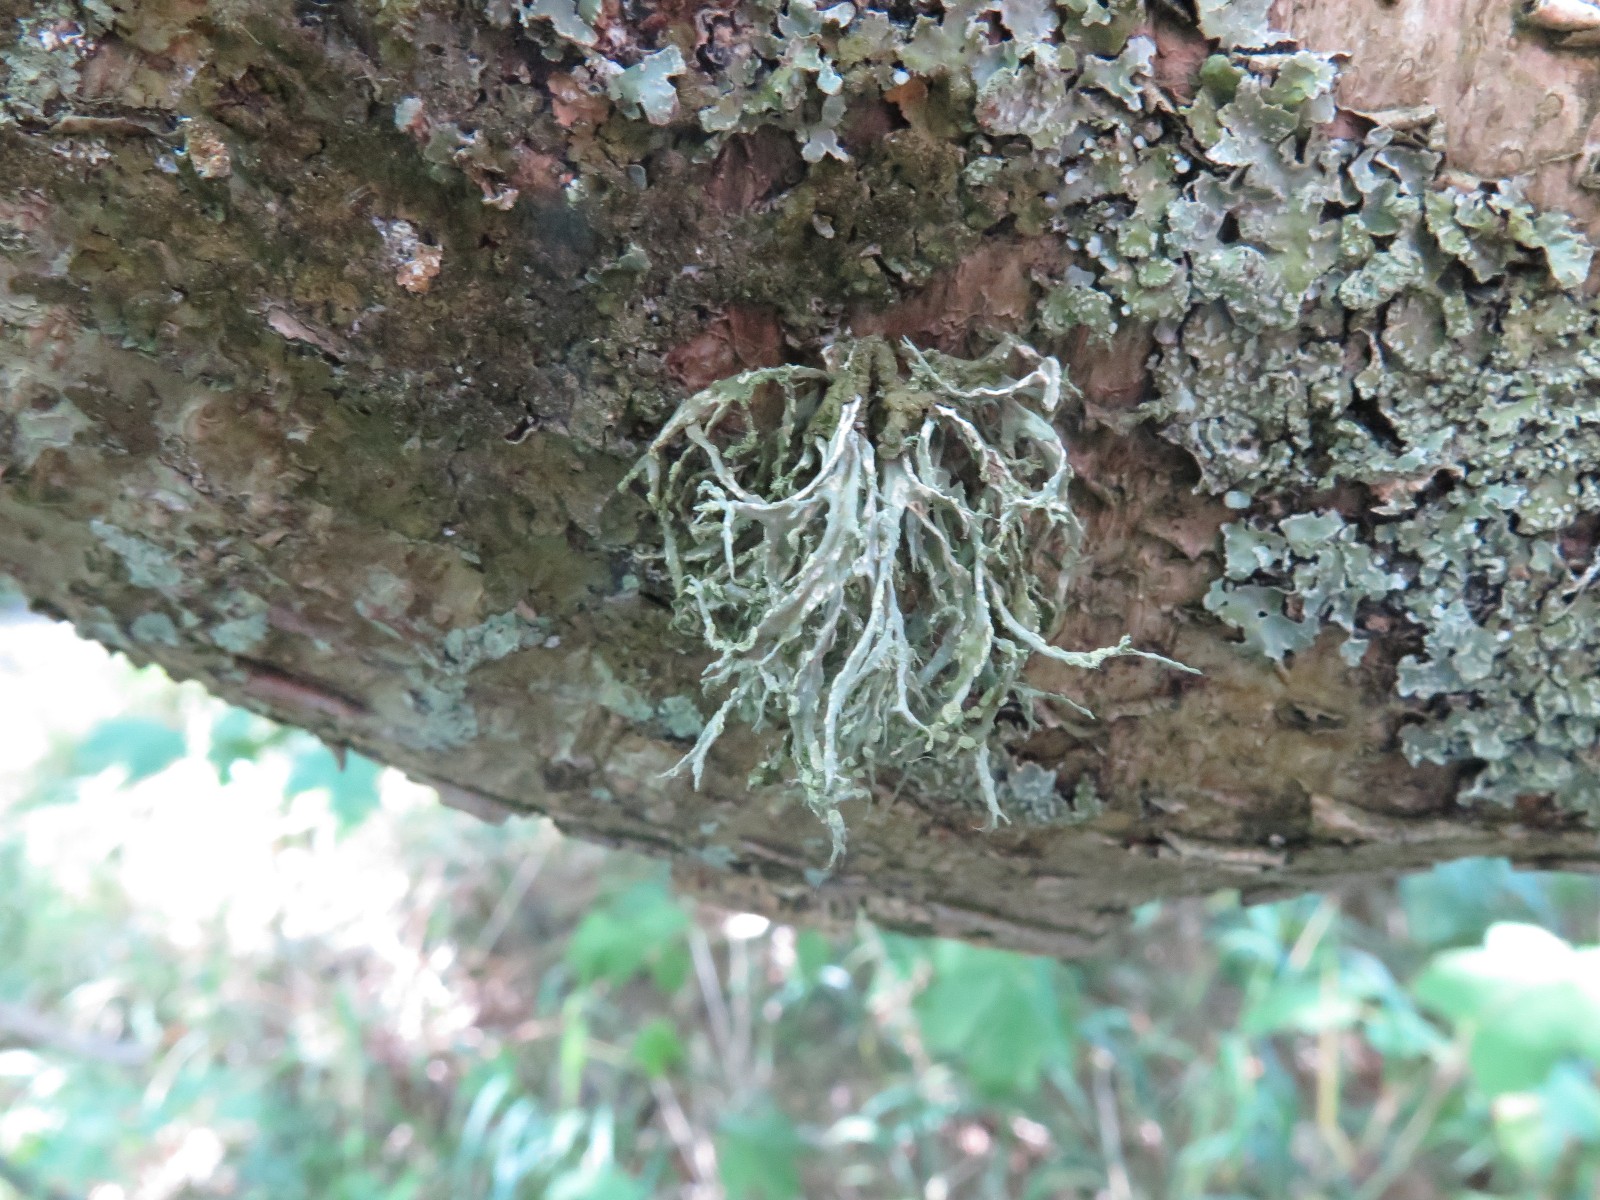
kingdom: Fungi
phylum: Ascomycota
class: Lecanoromycetes
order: Lecanorales
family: Ramalinaceae
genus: Ramalina
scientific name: Ramalina farinacea
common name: melet grenlav
